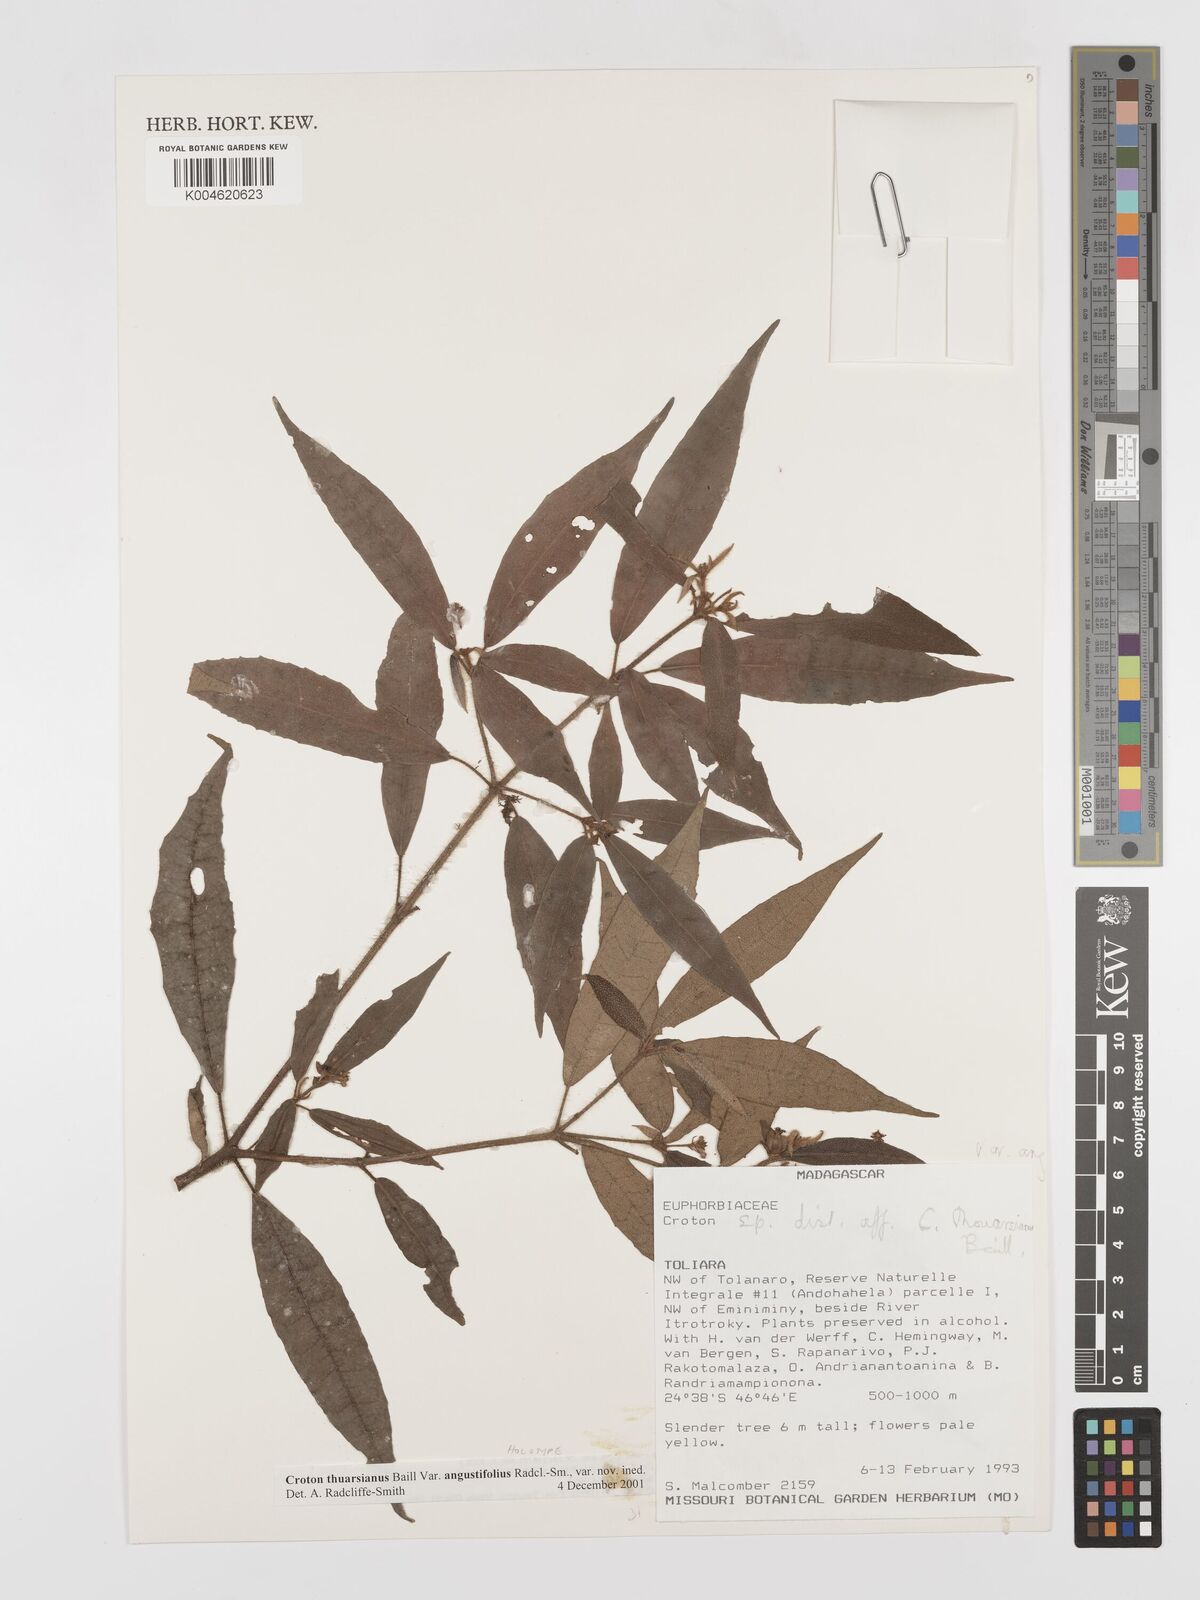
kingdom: Plantae
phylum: Tracheophyta
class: Magnoliopsida
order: Malpighiales
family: Euphorbiaceae
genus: Croton
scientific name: Croton thouarsianus
